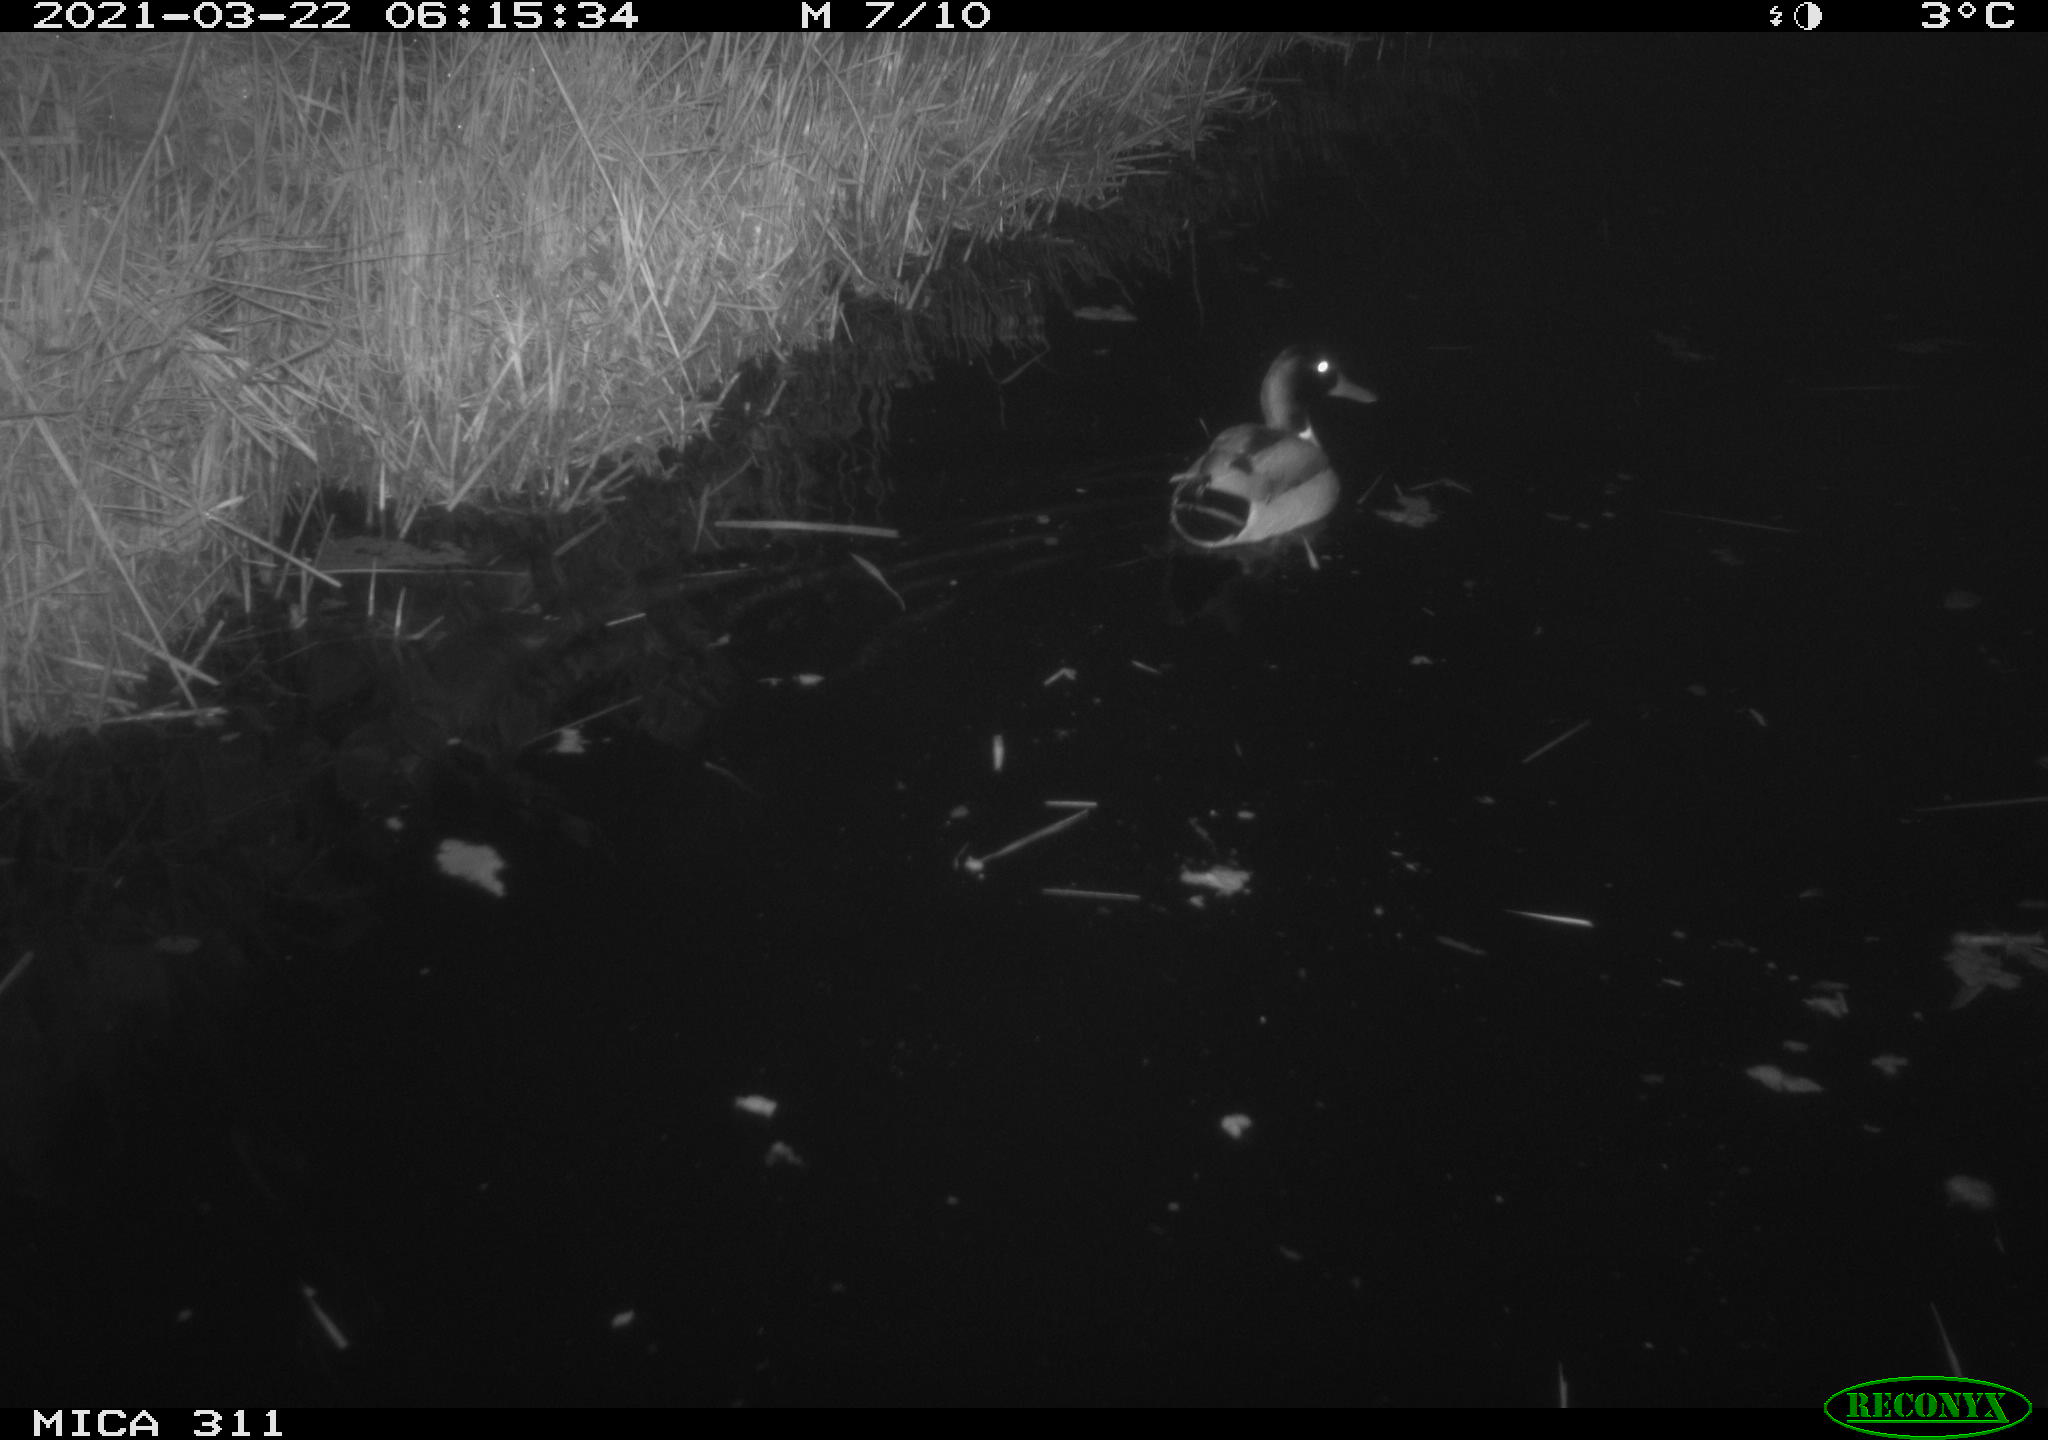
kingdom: Animalia
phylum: Chordata
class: Aves
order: Anseriformes
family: Anatidae
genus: Anas
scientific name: Anas
